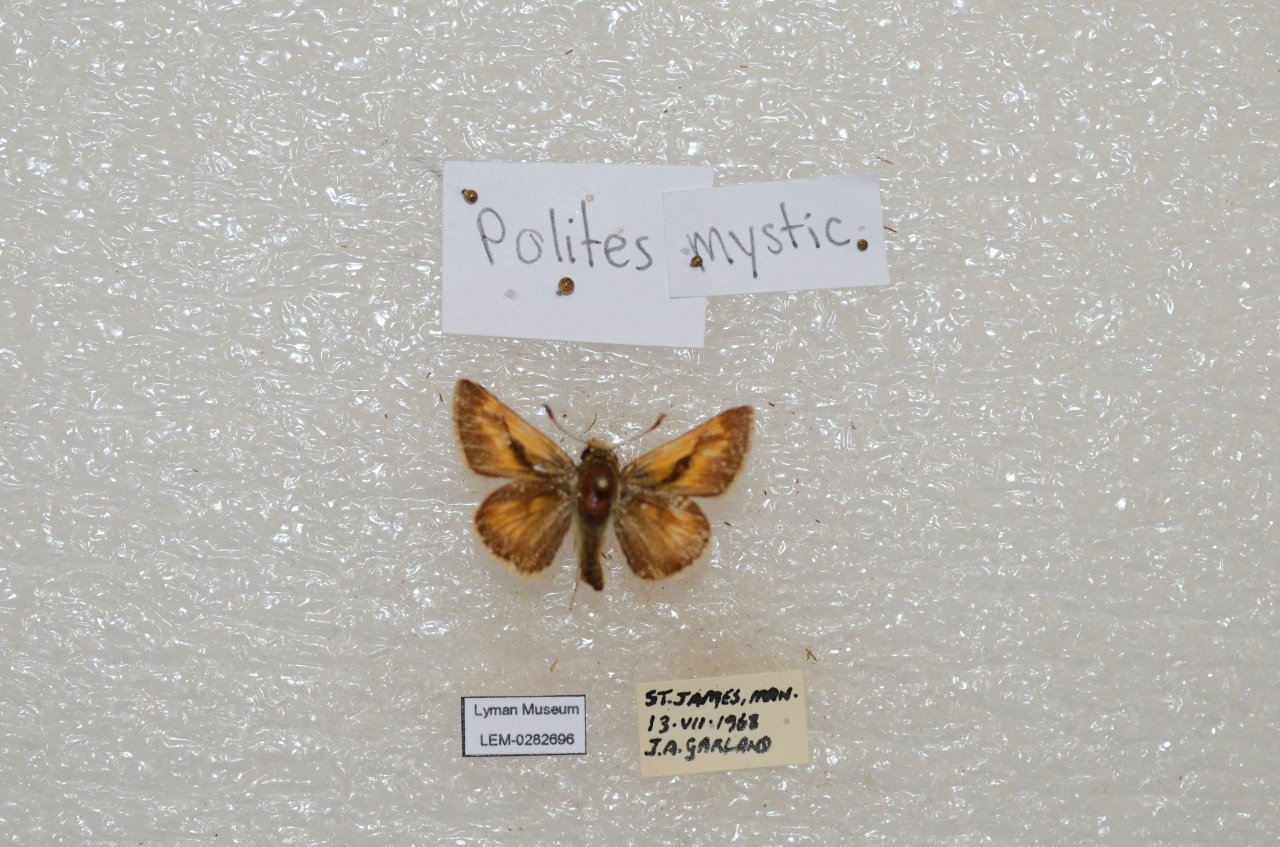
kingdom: Animalia
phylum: Arthropoda
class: Insecta
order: Lepidoptera
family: Hesperiidae
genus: Polites
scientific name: Polites
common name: Long Dash Skipper
